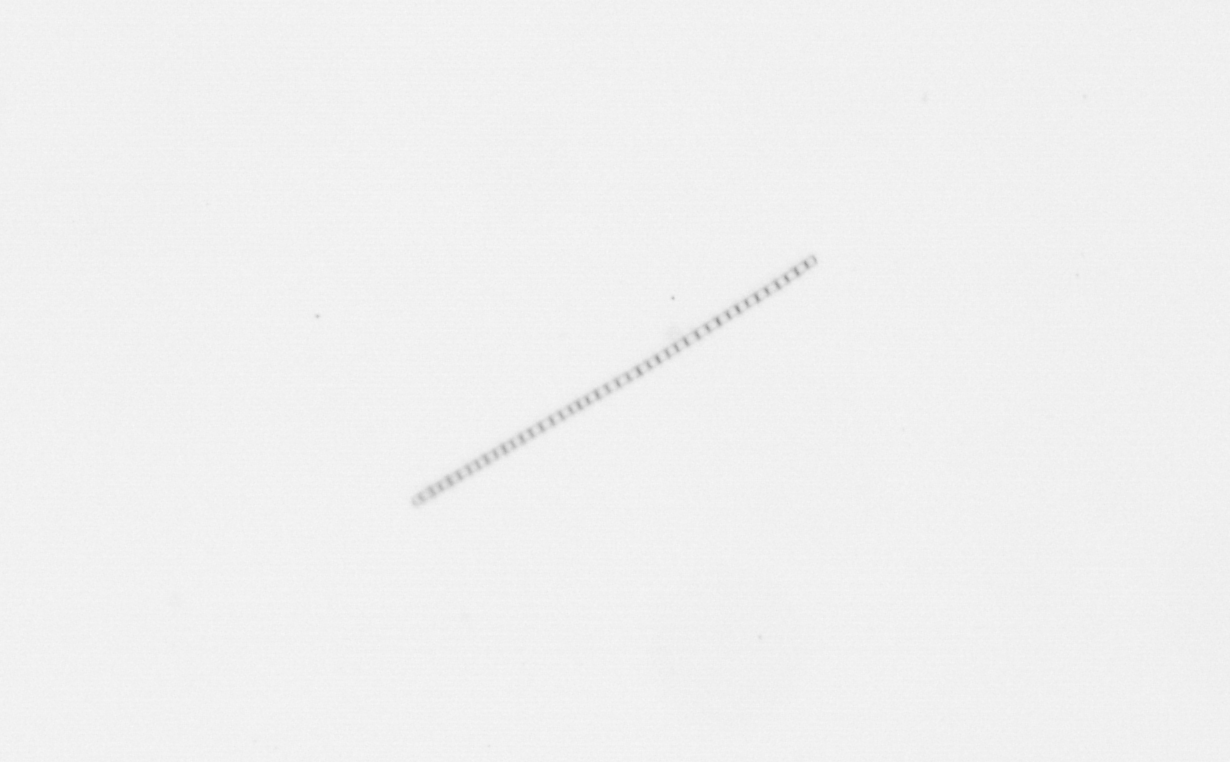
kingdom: Chromista
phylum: Ochrophyta
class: Bacillariophyceae
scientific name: Bacillariophyceae
